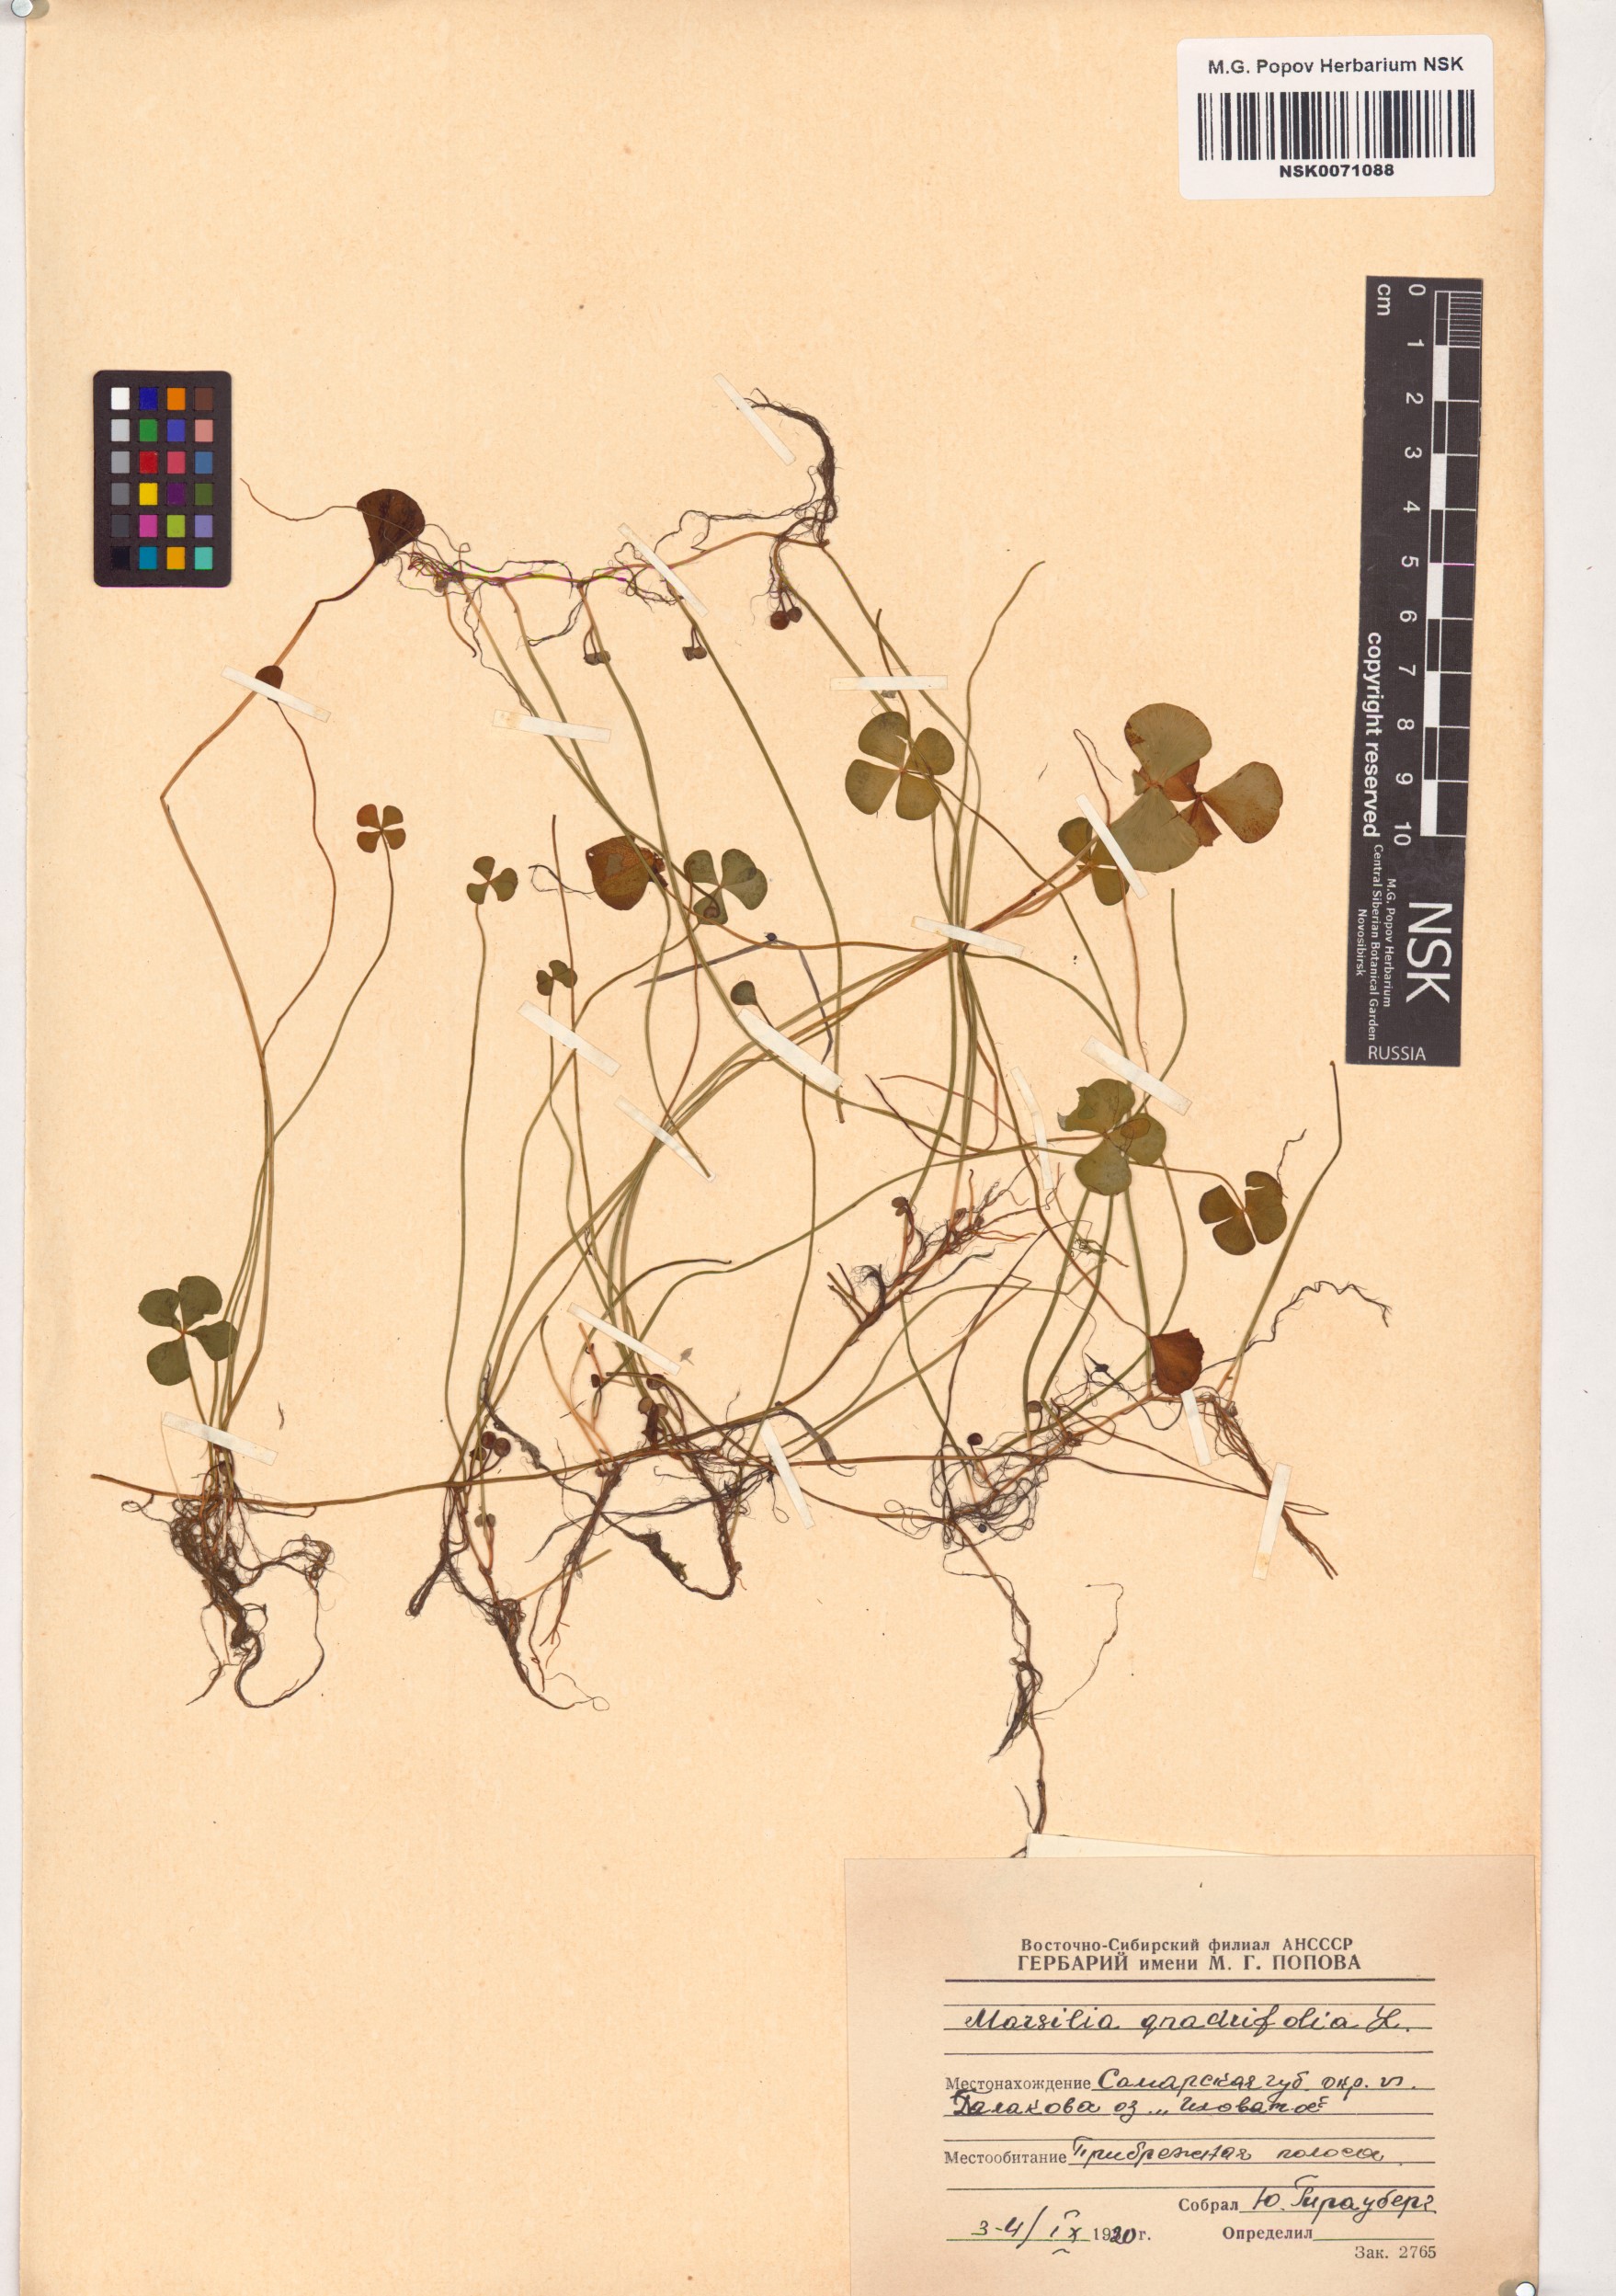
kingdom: Plantae
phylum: Tracheophyta
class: Polypodiopsida
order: Salviniales
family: Marsileaceae
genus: Marsilea
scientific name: Marsilea quadrifolia
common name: Water shamrock
